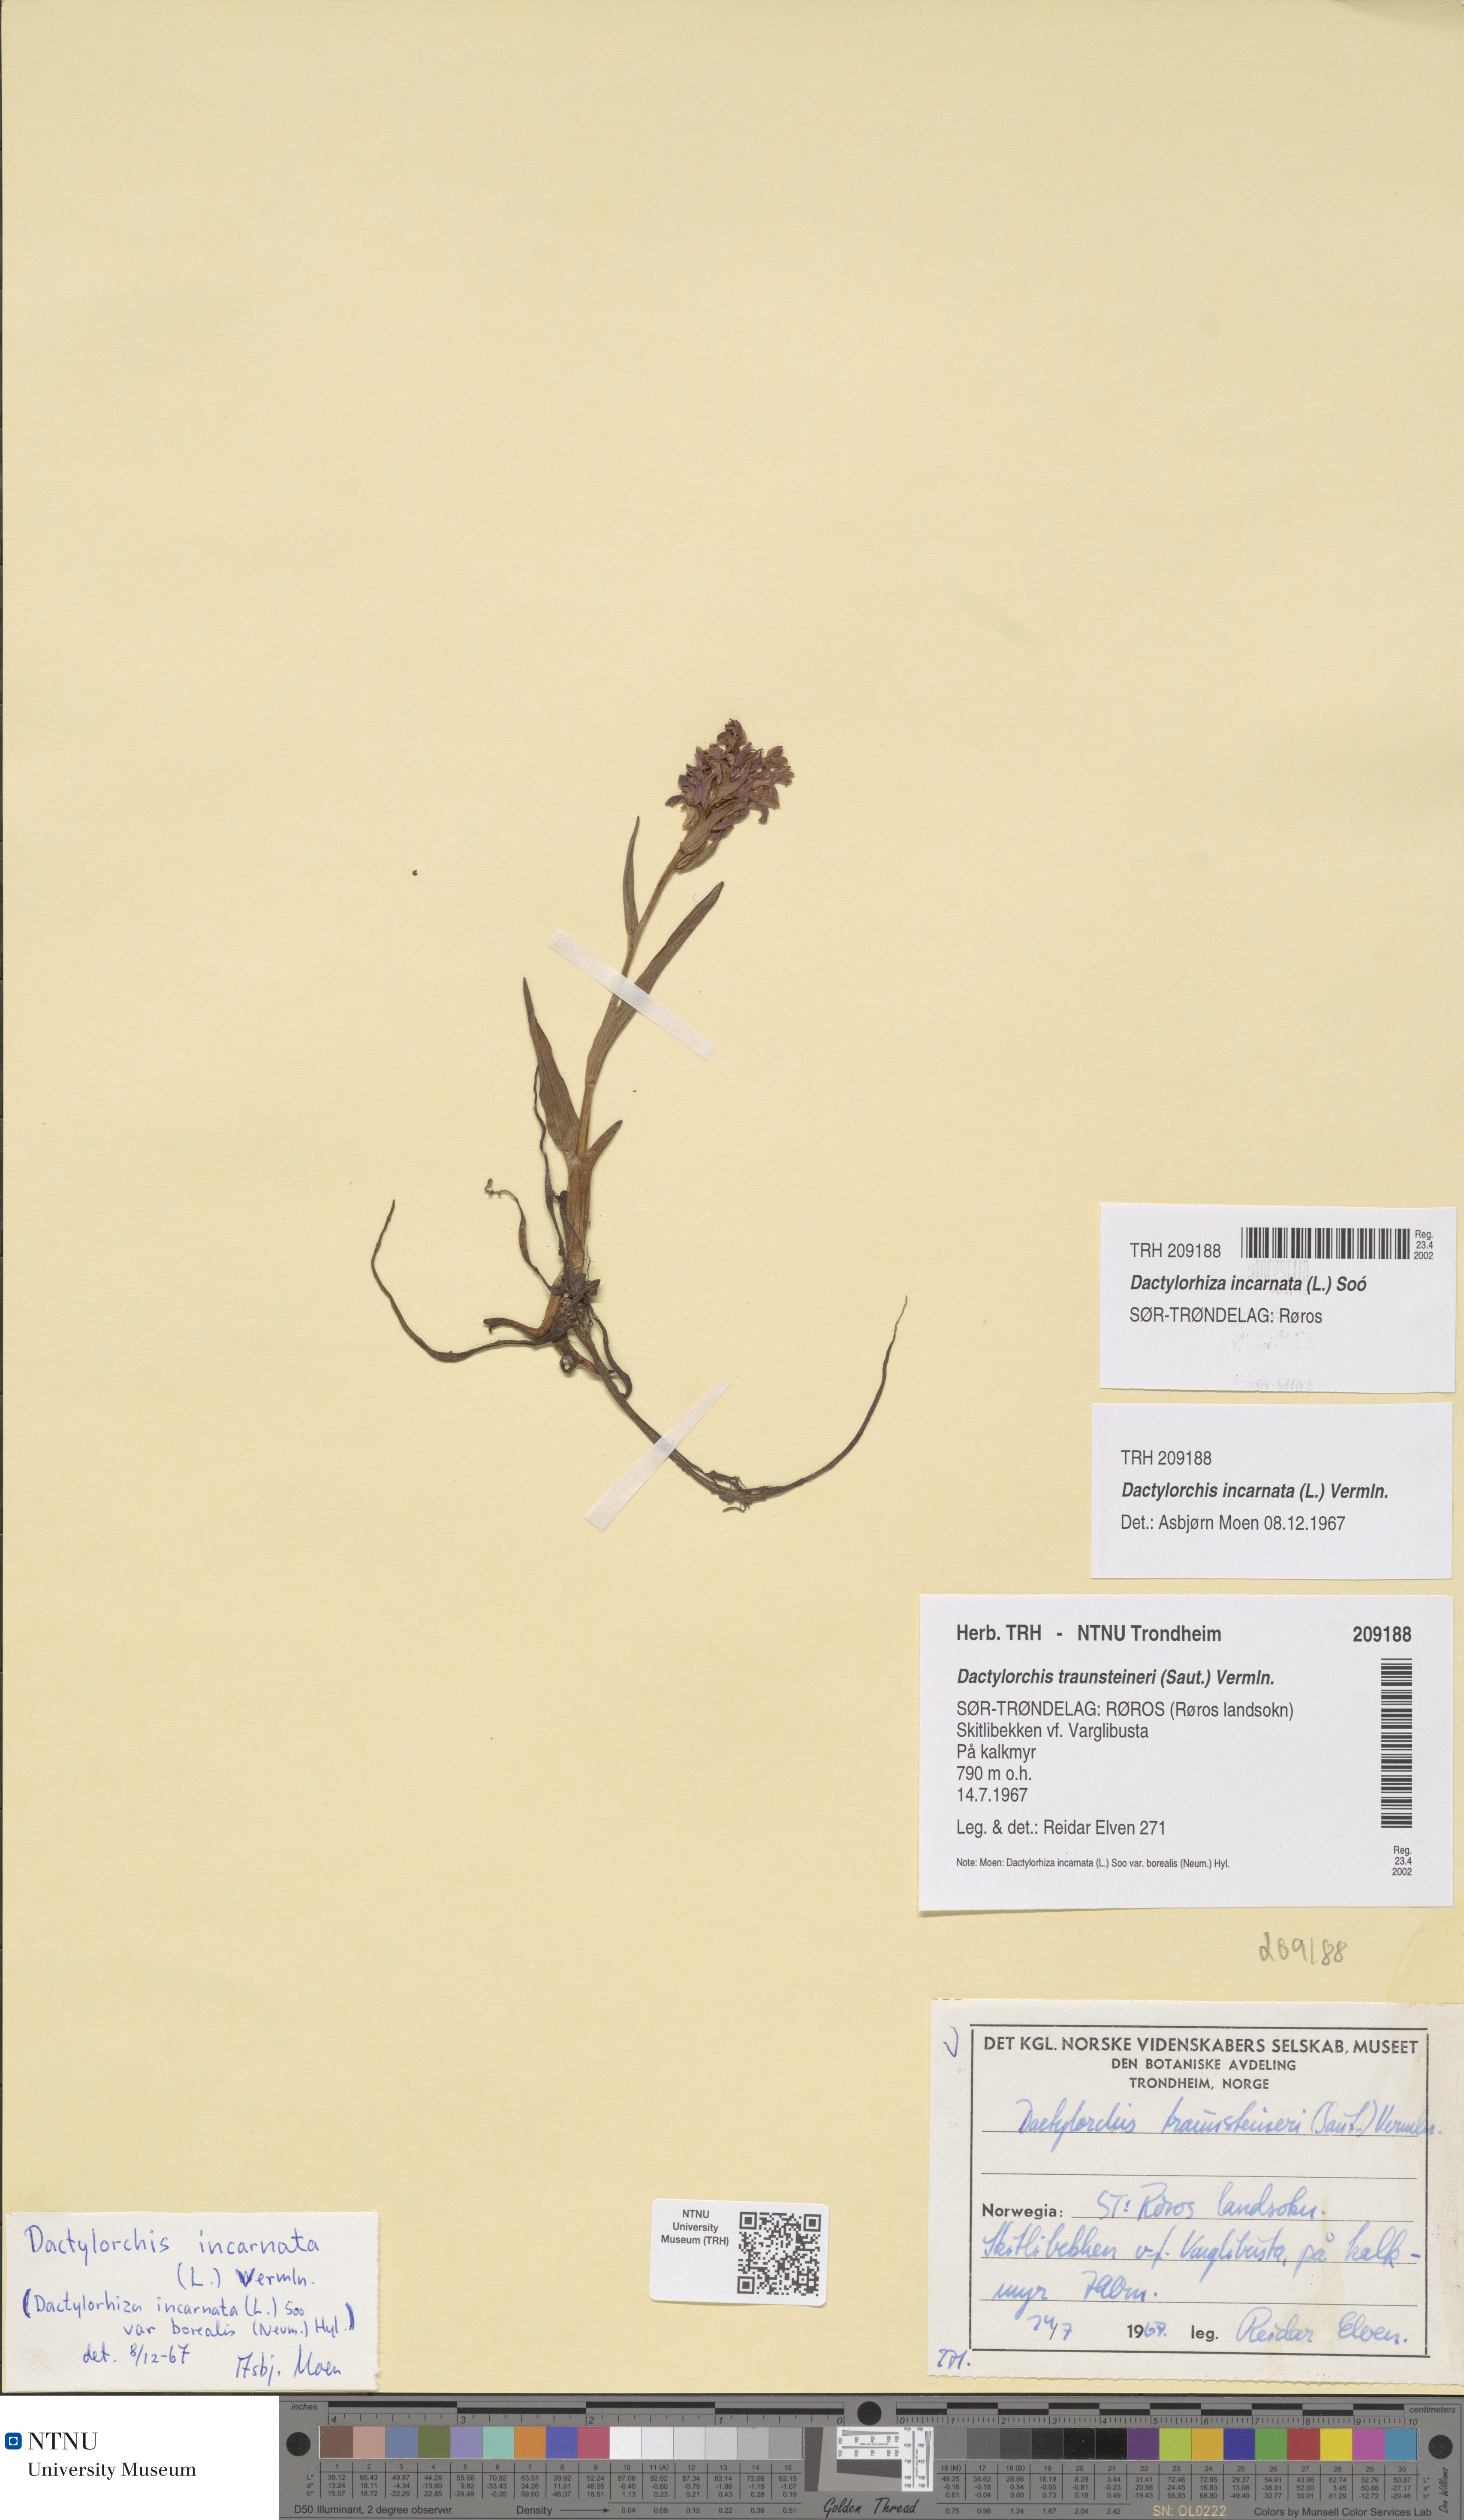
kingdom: Plantae
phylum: Tracheophyta
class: Liliopsida
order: Asparagales
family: Orchidaceae
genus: Dactylorhiza
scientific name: Dactylorhiza incarnata
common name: Early marsh-orchid
